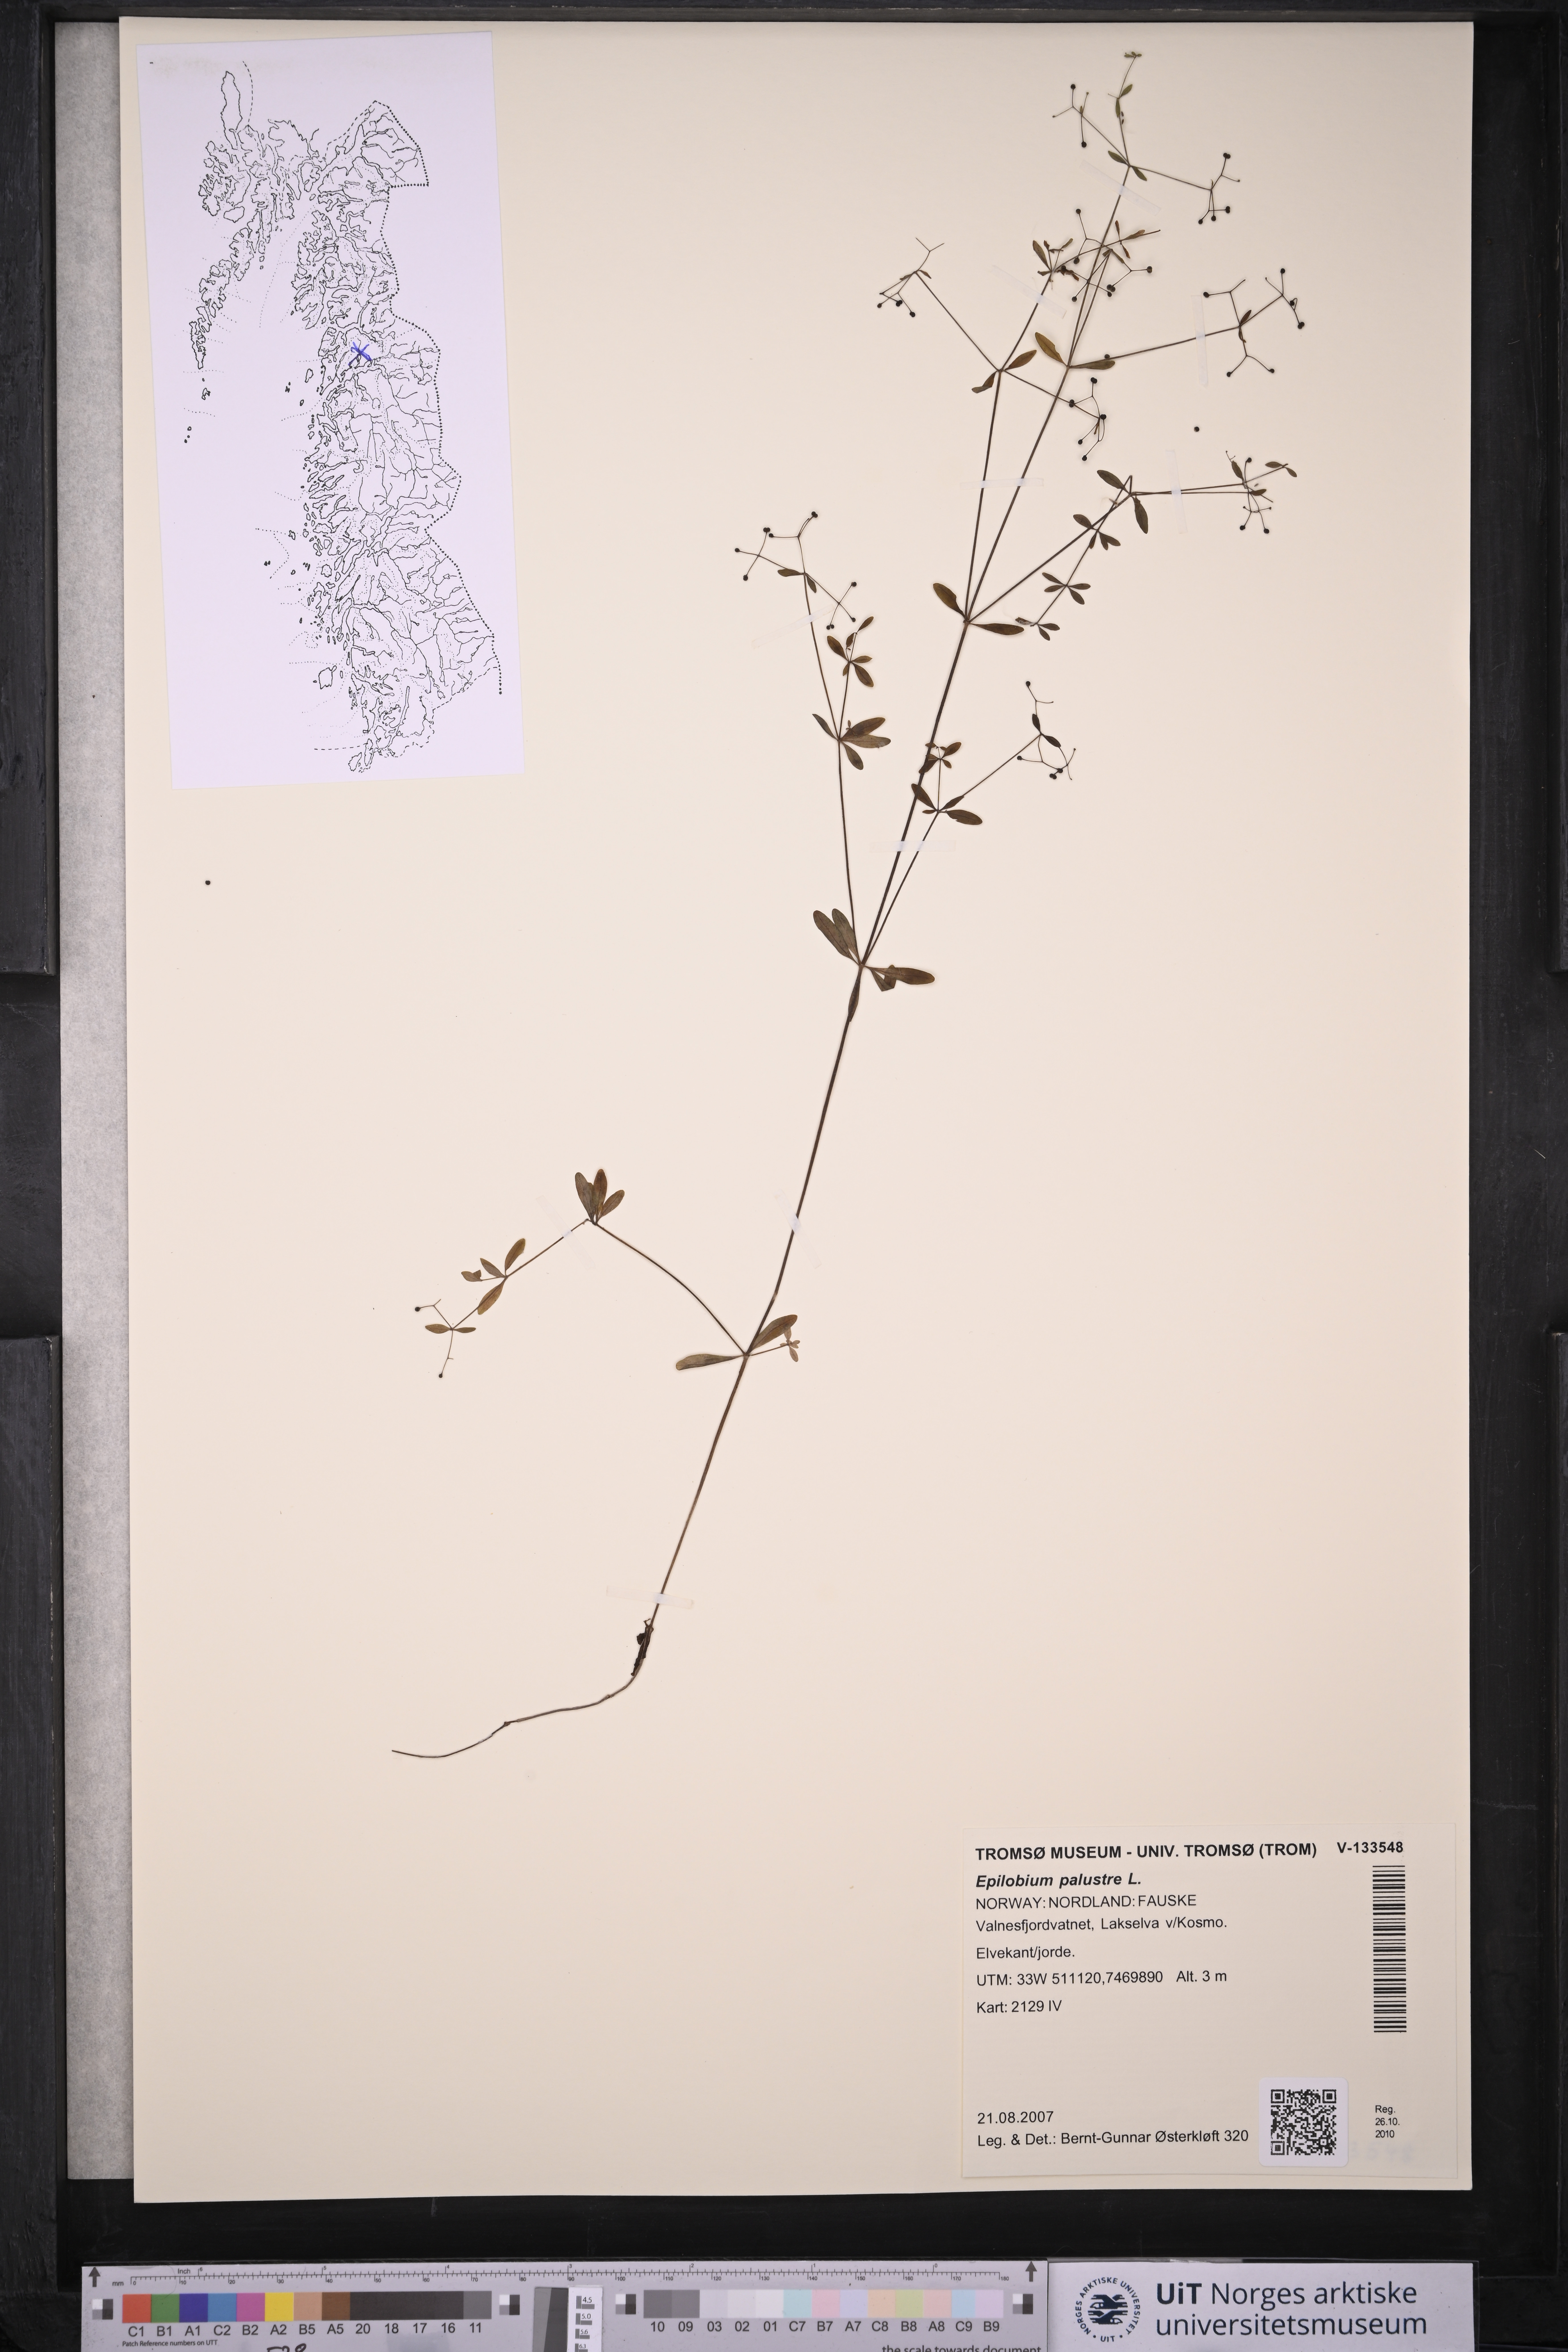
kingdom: Plantae
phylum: Tracheophyta
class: Magnoliopsida
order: Myrtales
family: Onagraceae
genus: Epilobium
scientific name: Epilobium palustre
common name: Marsh willowherb
